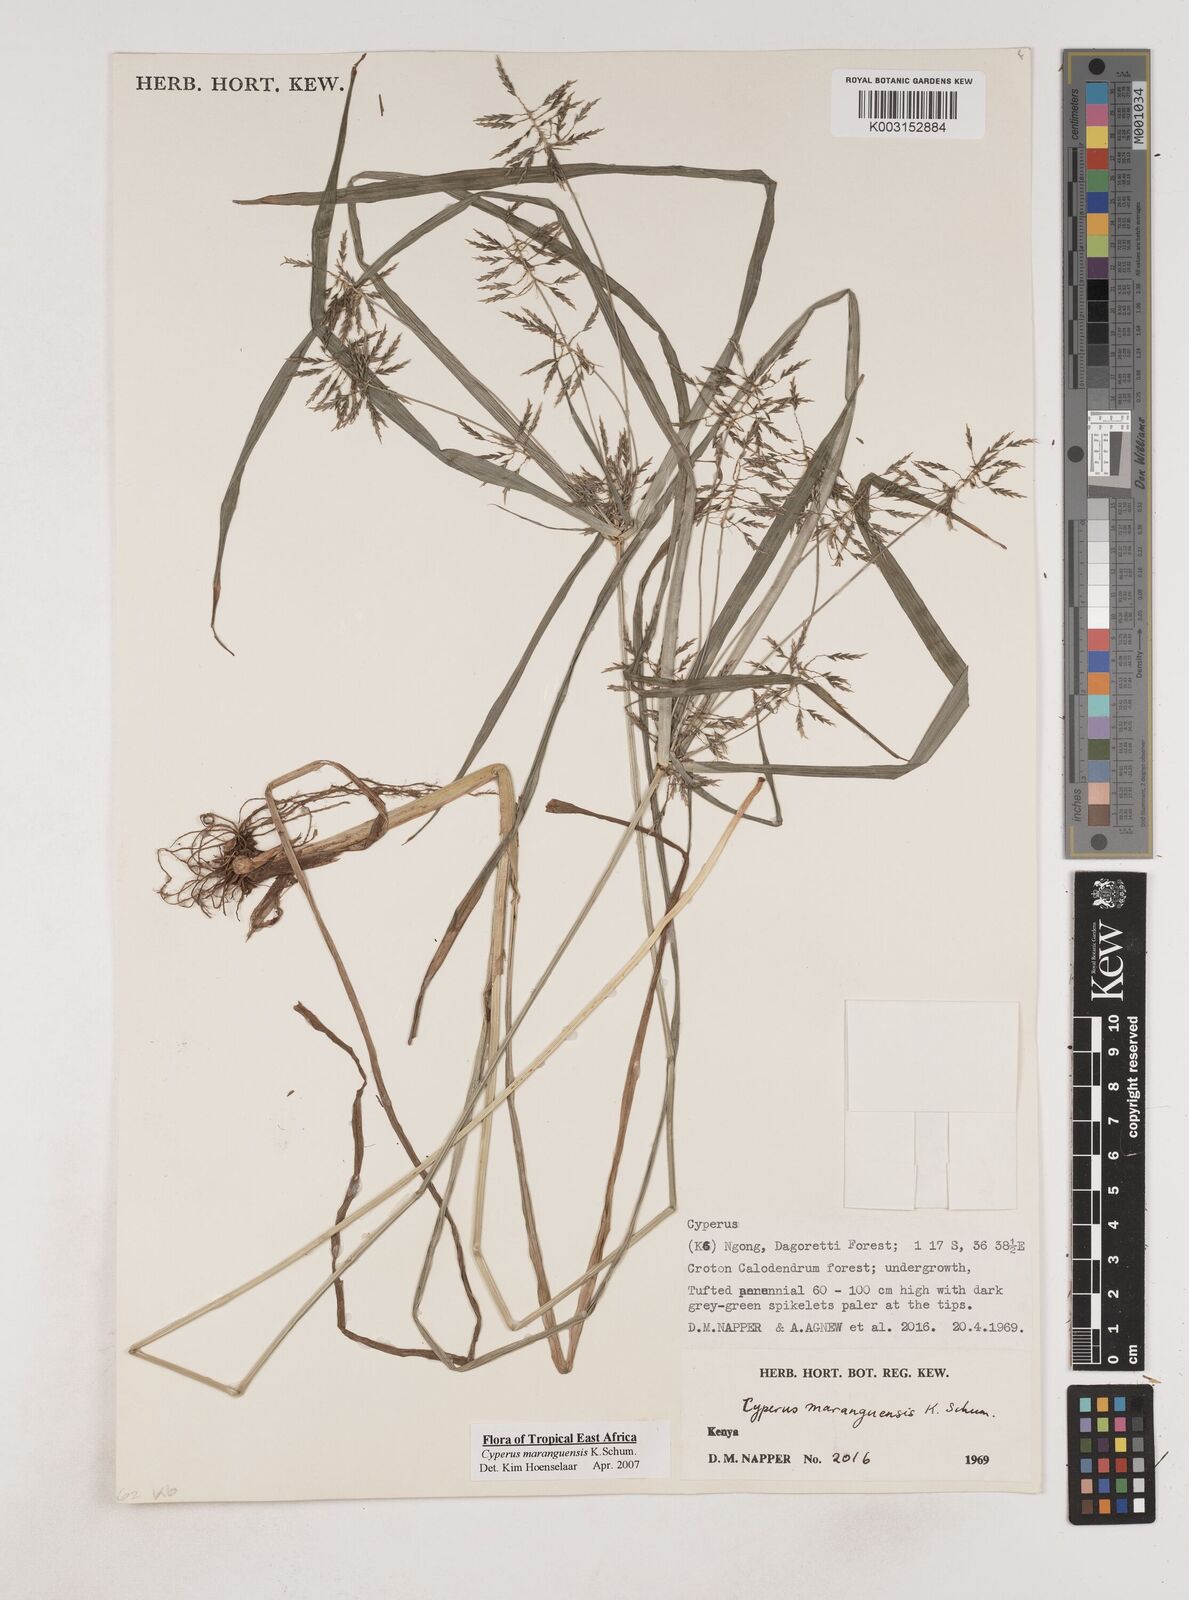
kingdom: Plantae
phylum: Tracheophyta
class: Liliopsida
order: Poales
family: Cyperaceae
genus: Cyperus
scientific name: Cyperus maranguensis
